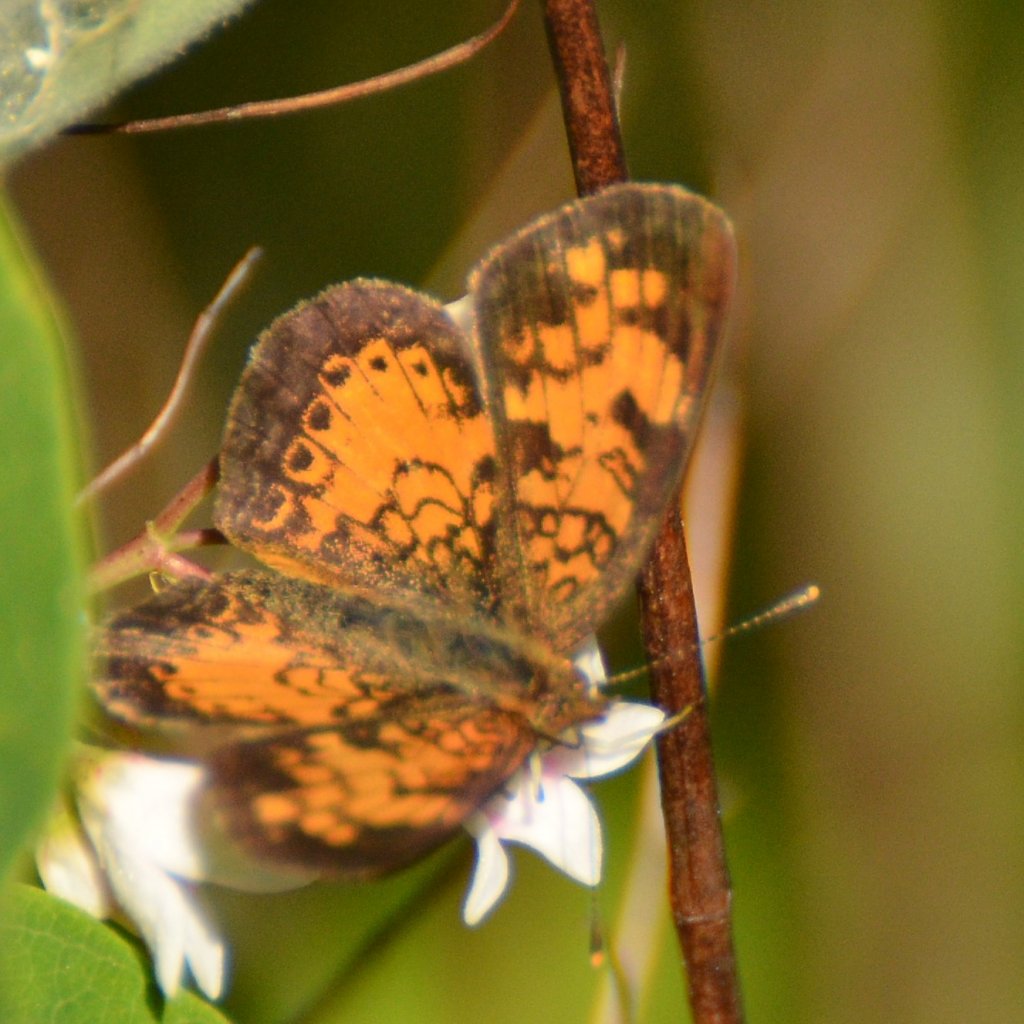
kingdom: Animalia
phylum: Arthropoda
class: Insecta
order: Lepidoptera
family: Nymphalidae
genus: Phyciodes
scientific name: Phyciodes tharos
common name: Northern Crescent
